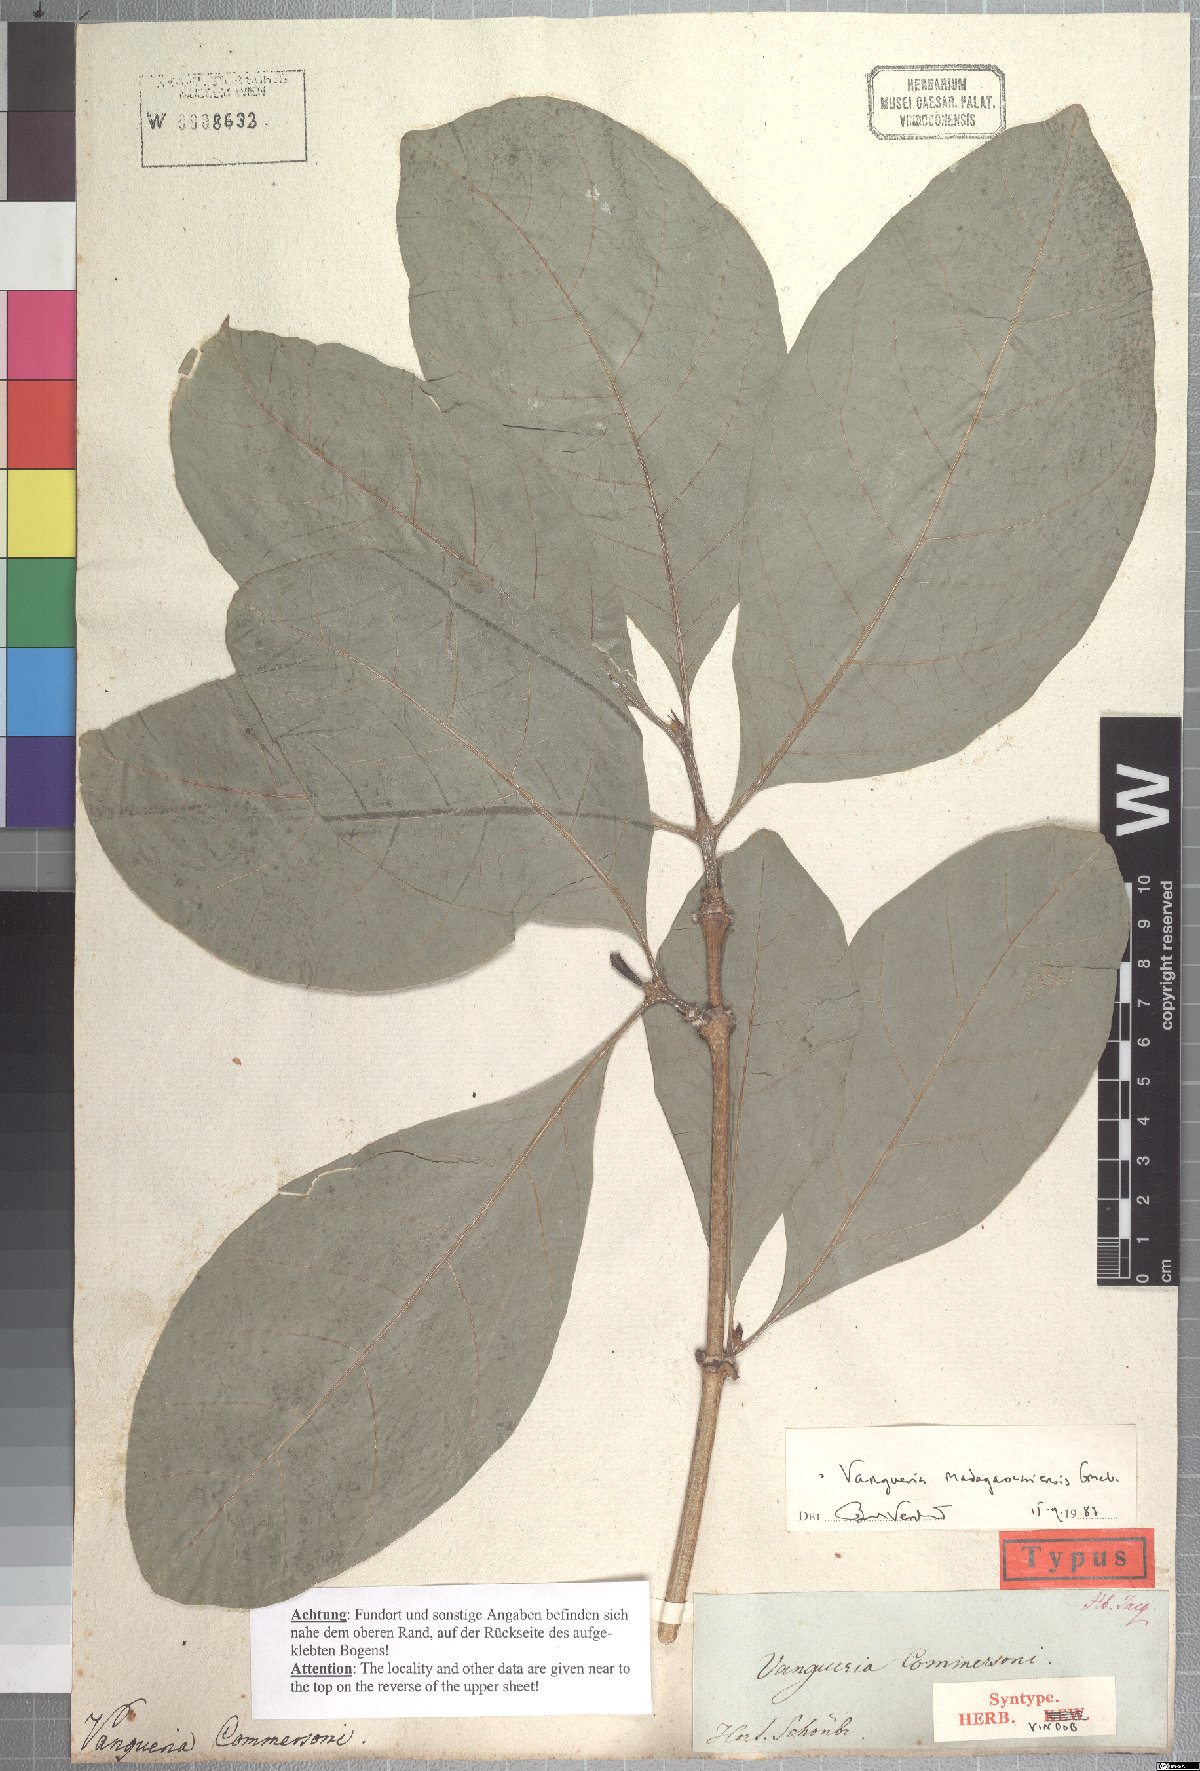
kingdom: Plantae
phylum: Tracheophyta
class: Magnoliopsida
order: Gentianales
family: Rubiaceae
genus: Vangueria
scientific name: Vangueria madagascariensis
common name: Smooth wild-medlar
